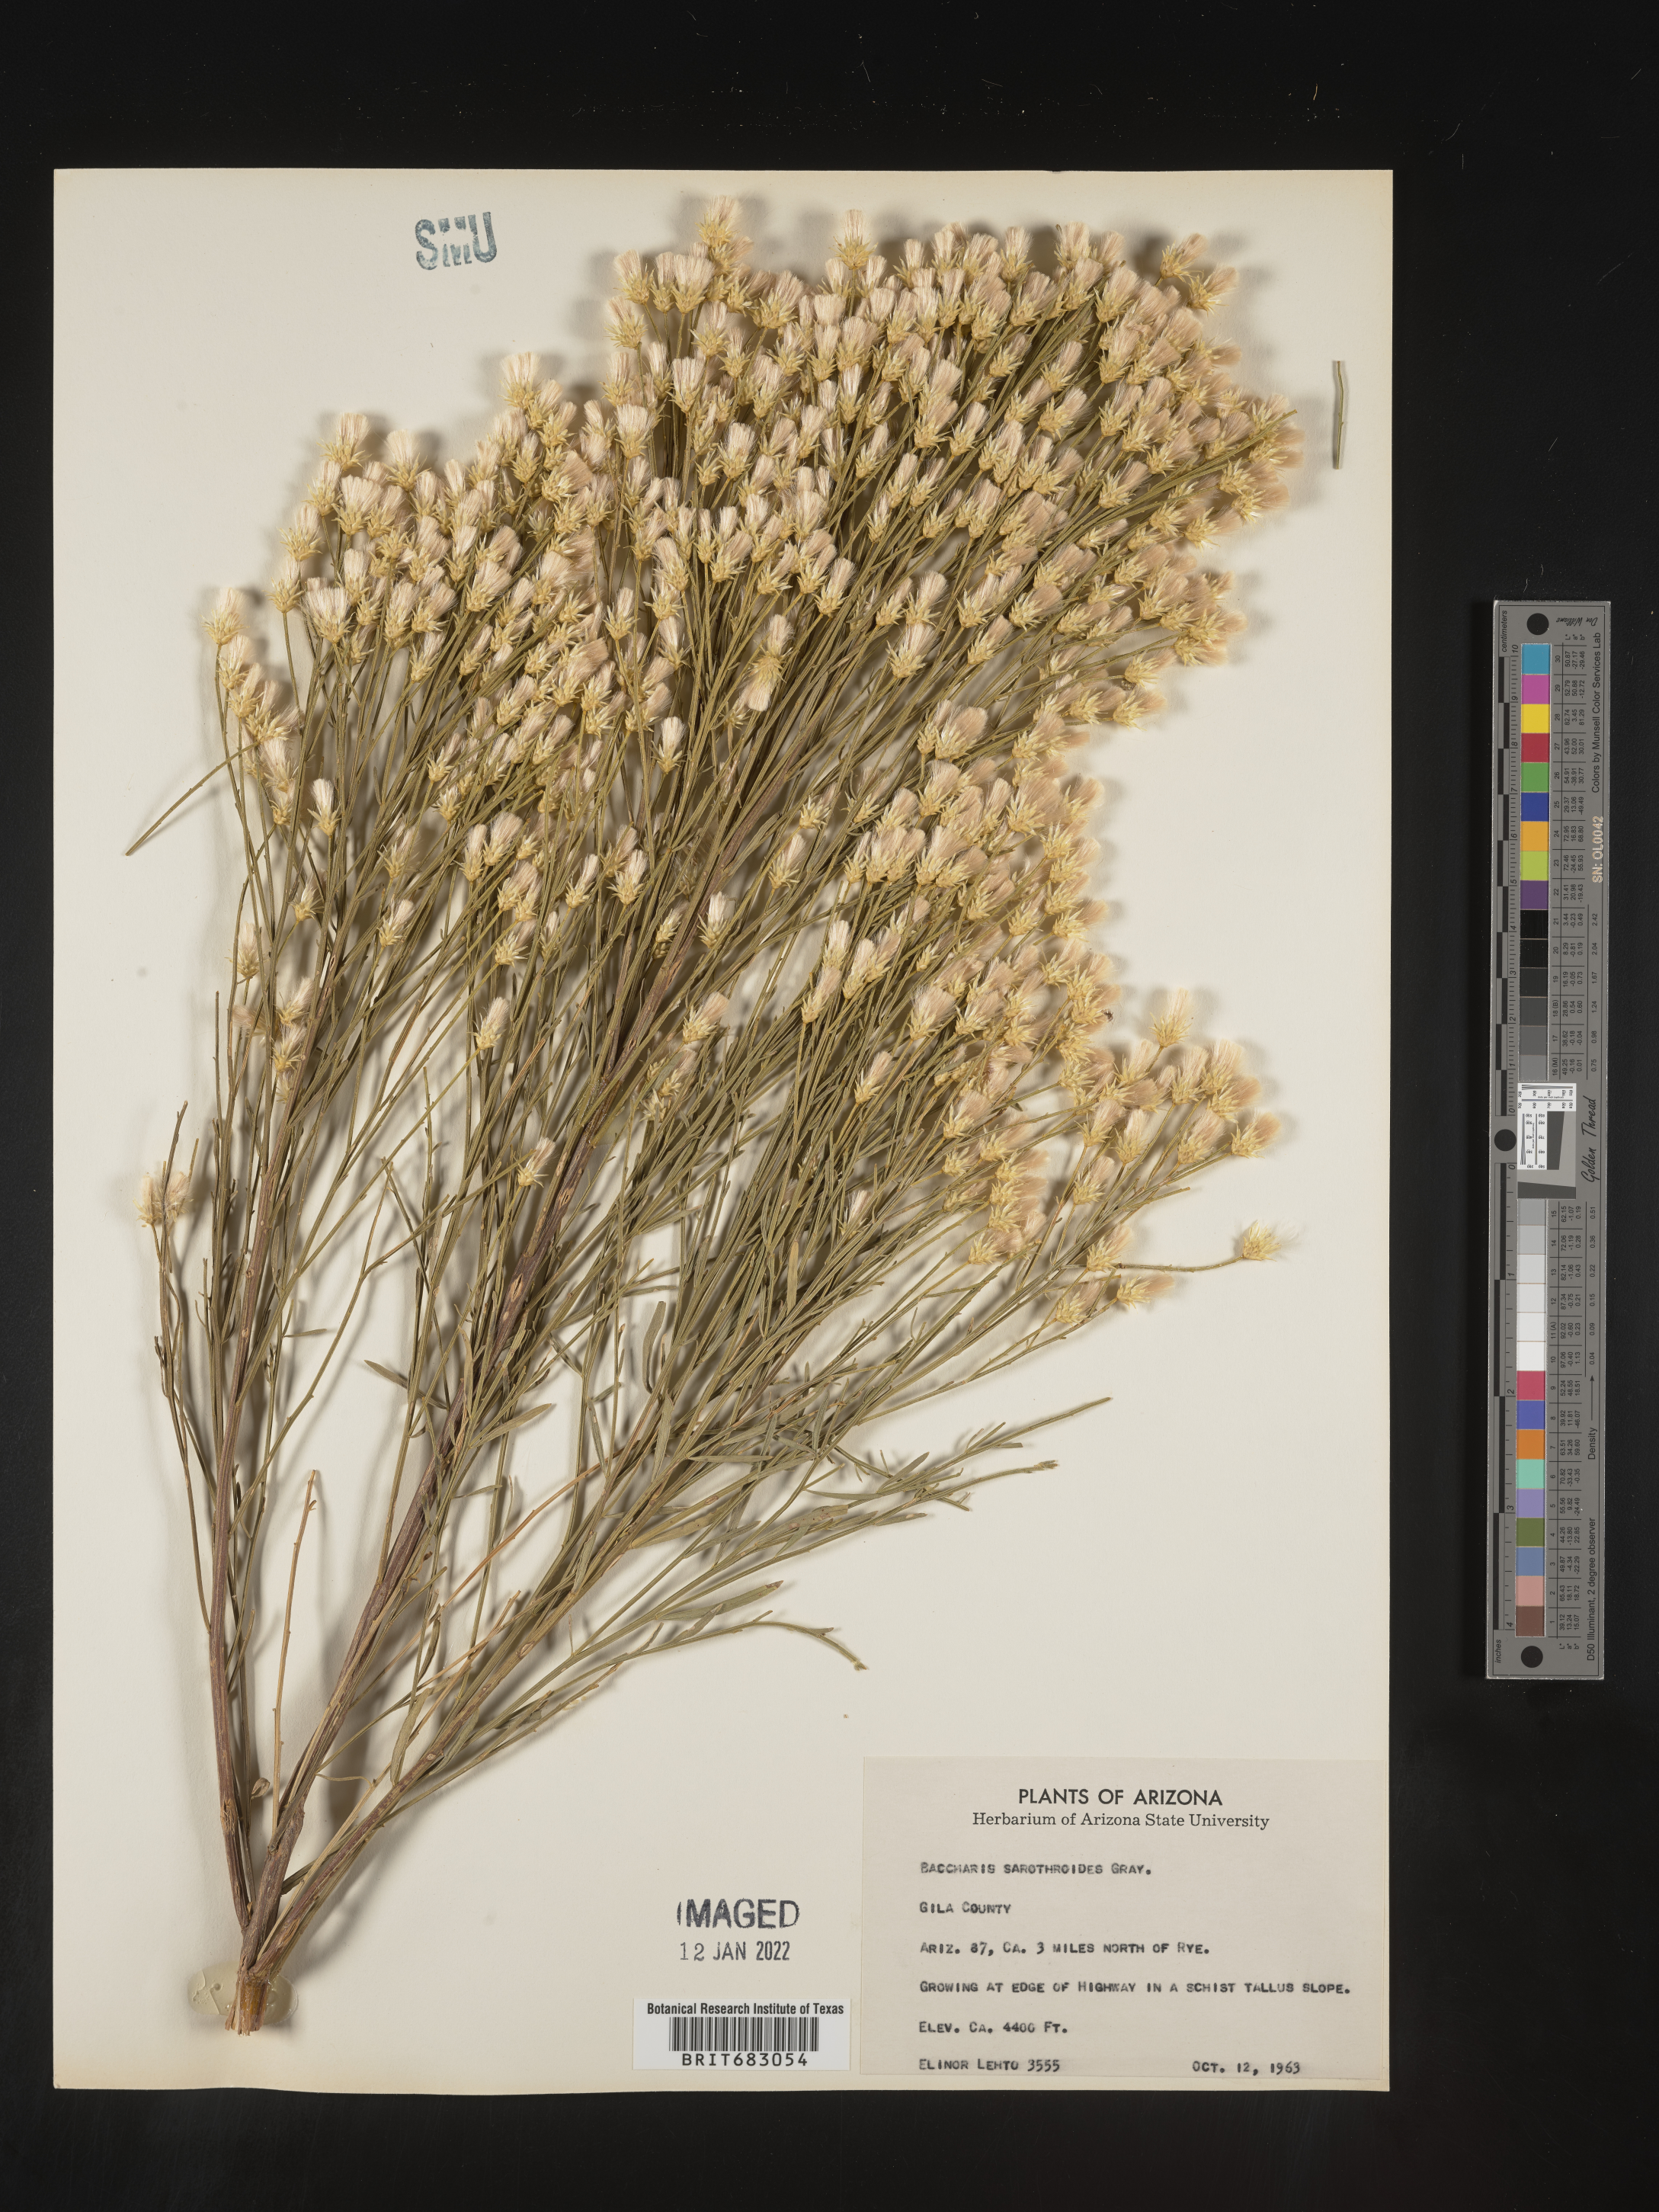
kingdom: Plantae
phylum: Tracheophyta
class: Magnoliopsida
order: Asterales
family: Asteraceae
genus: Baccharis
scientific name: Baccharis sarothroides
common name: Desert-broom
